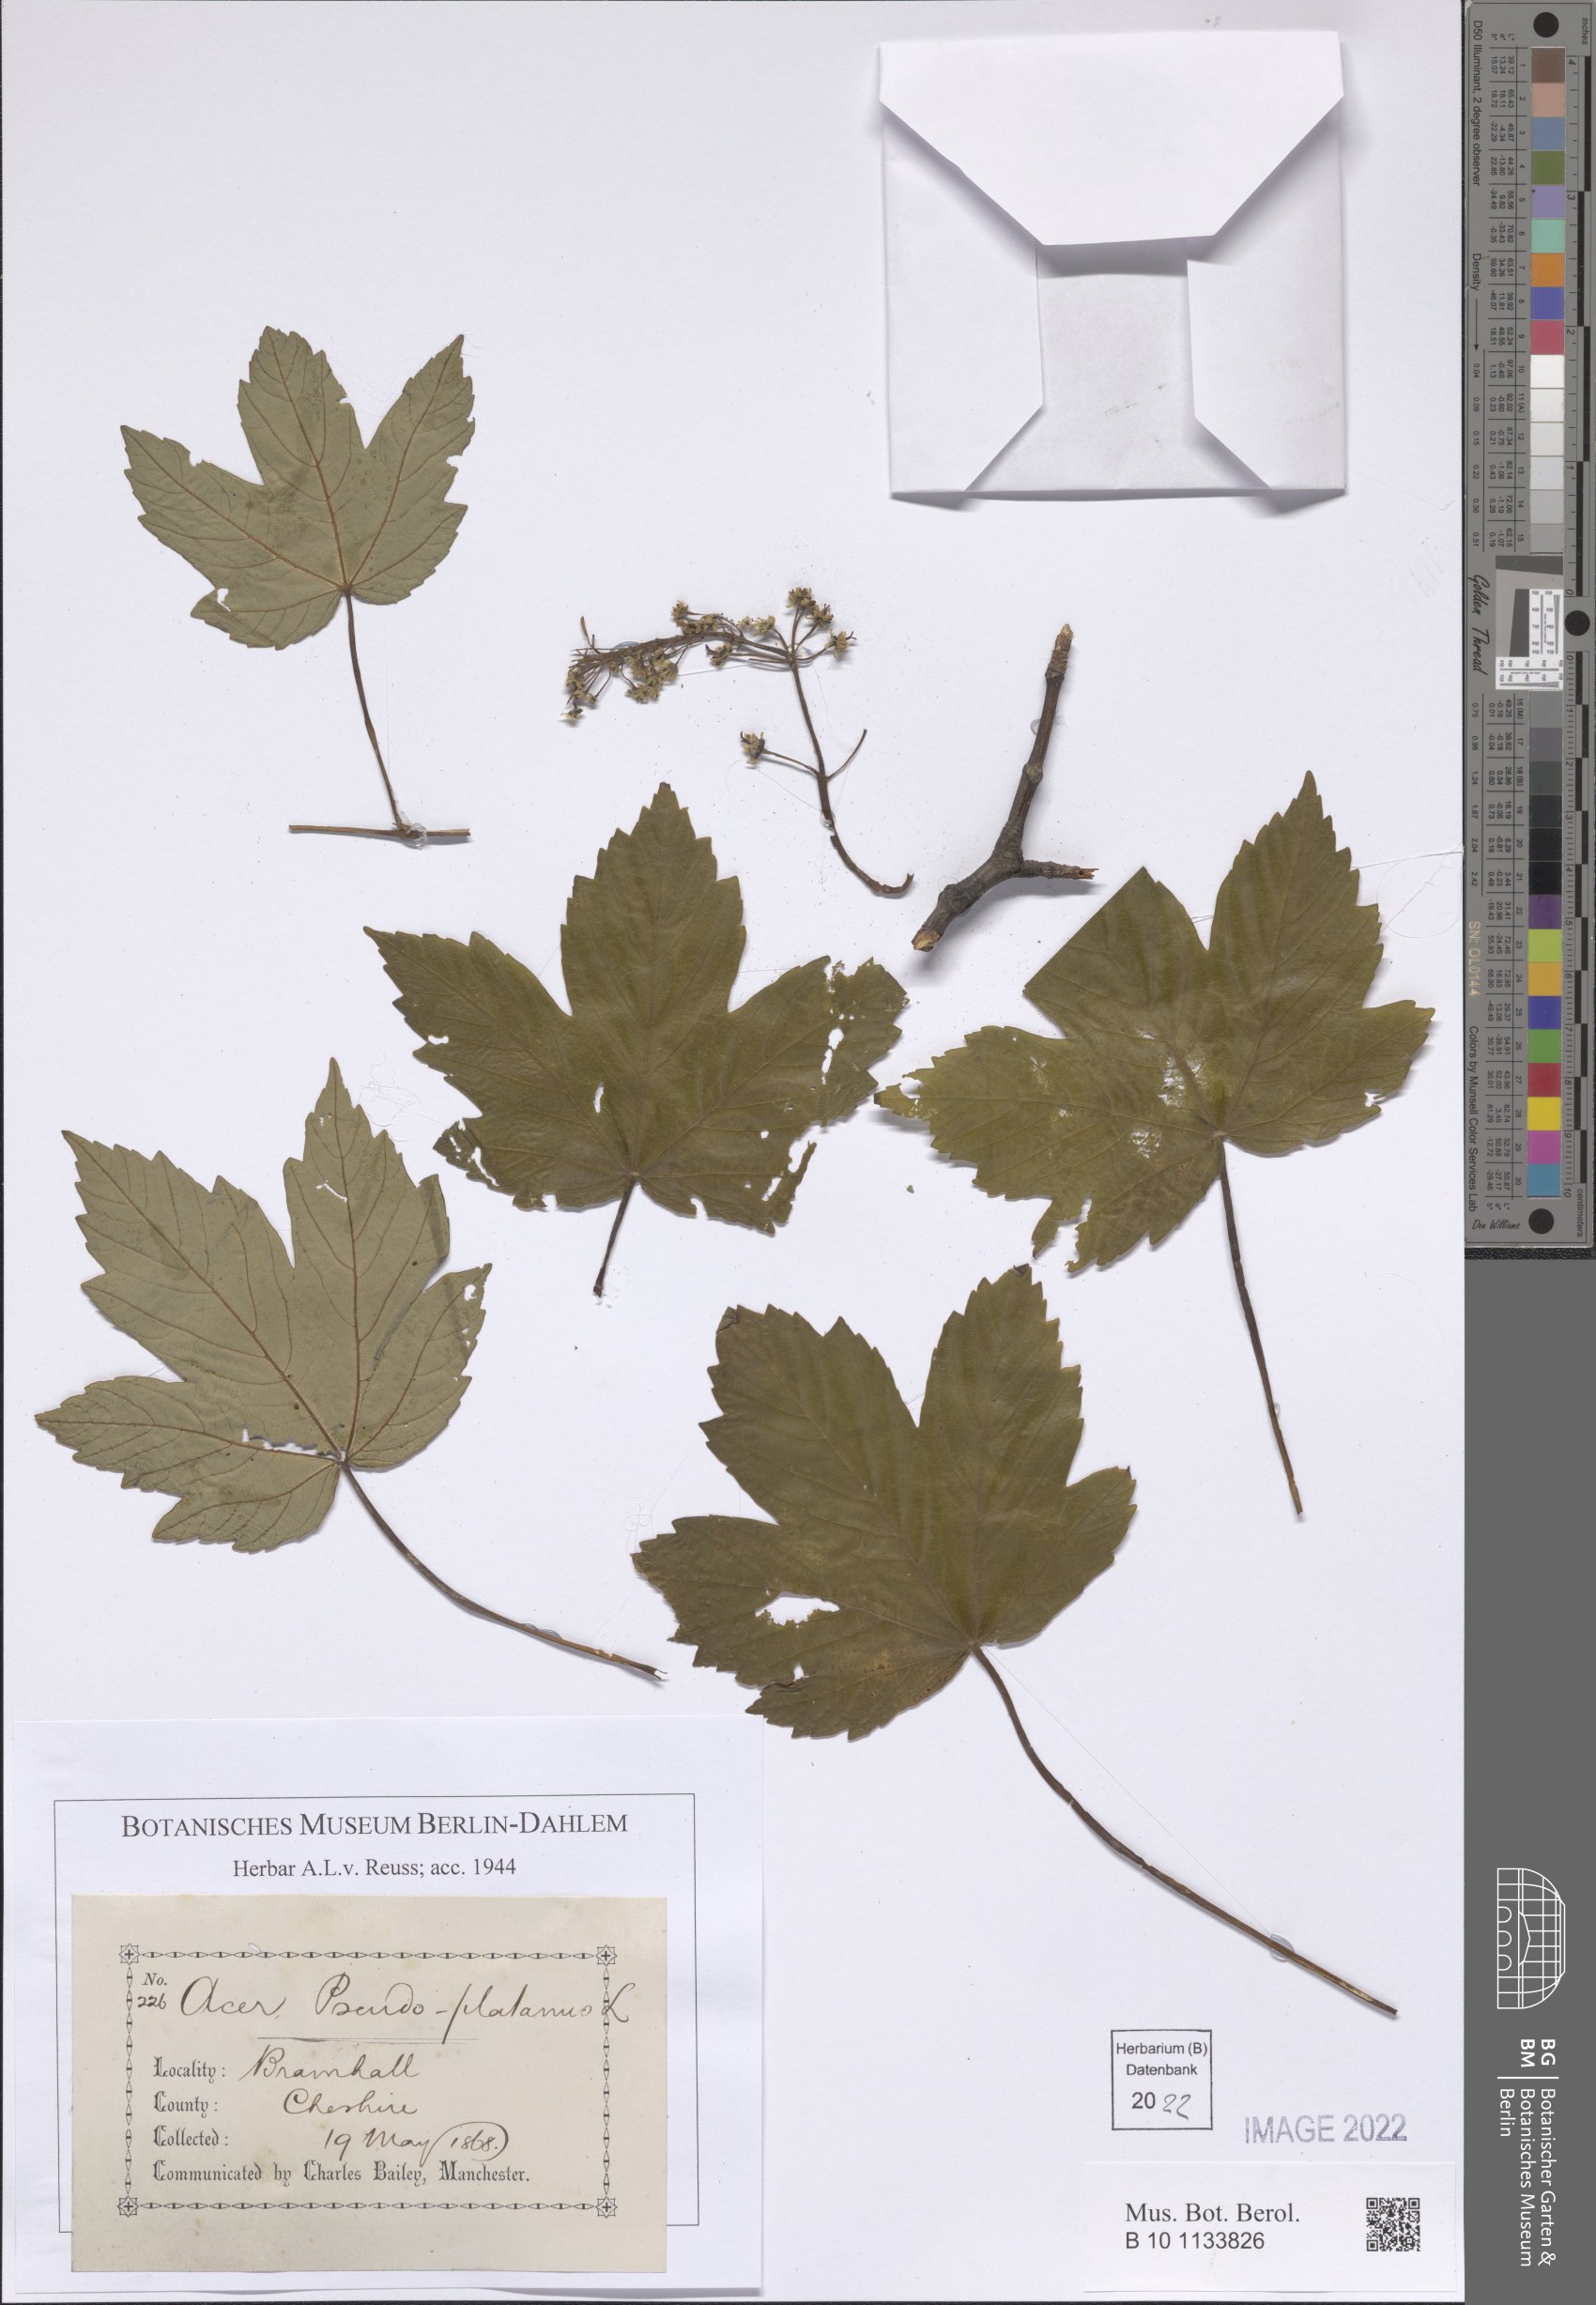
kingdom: Plantae
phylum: Tracheophyta
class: Magnoliopsida
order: Sapindales
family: Sapindaceae
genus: Acer
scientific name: Acer pseudoplatanus
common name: Sycamore
